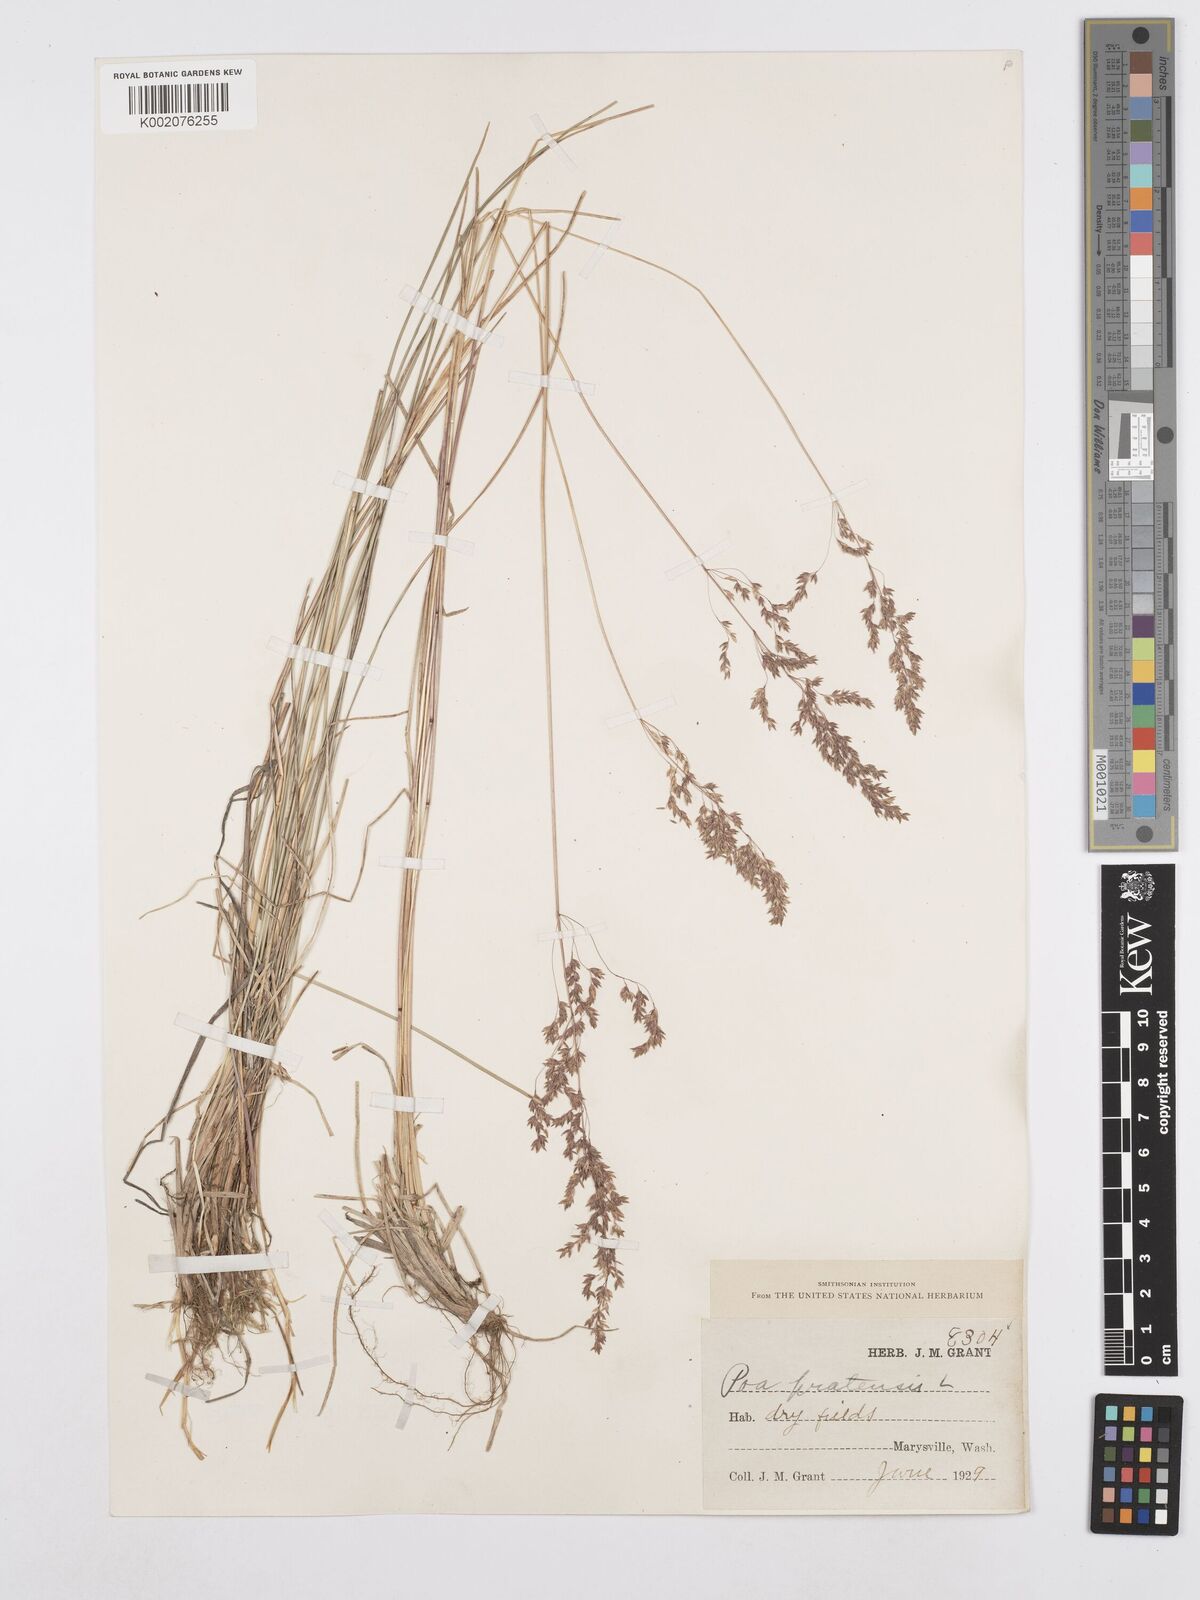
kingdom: Plantae
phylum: Tracheophyta
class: Liliopsida
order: Poales
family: Poaceae
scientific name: Poaceae
